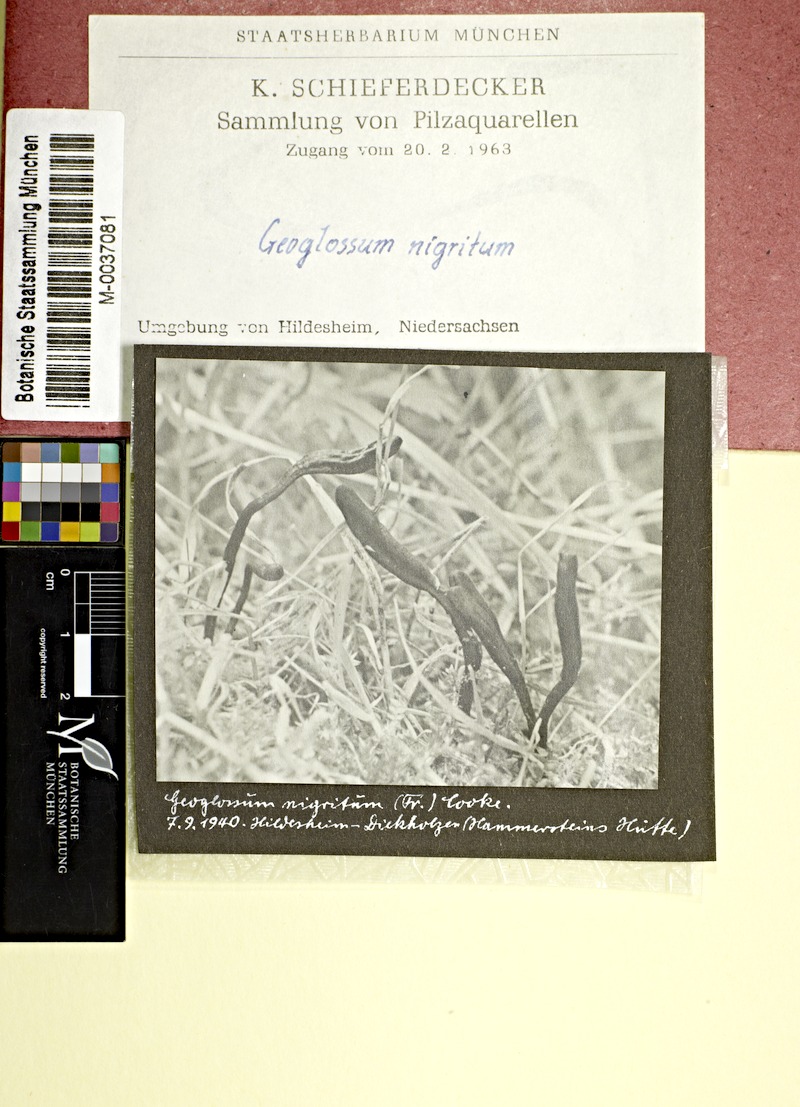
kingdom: Fungi
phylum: Ascomycota
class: Geoglossomycetes
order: Geoglossales
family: Geoglossaceae
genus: Geoglossum
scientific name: Geoglossum umbratile
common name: Plain earthtongue
